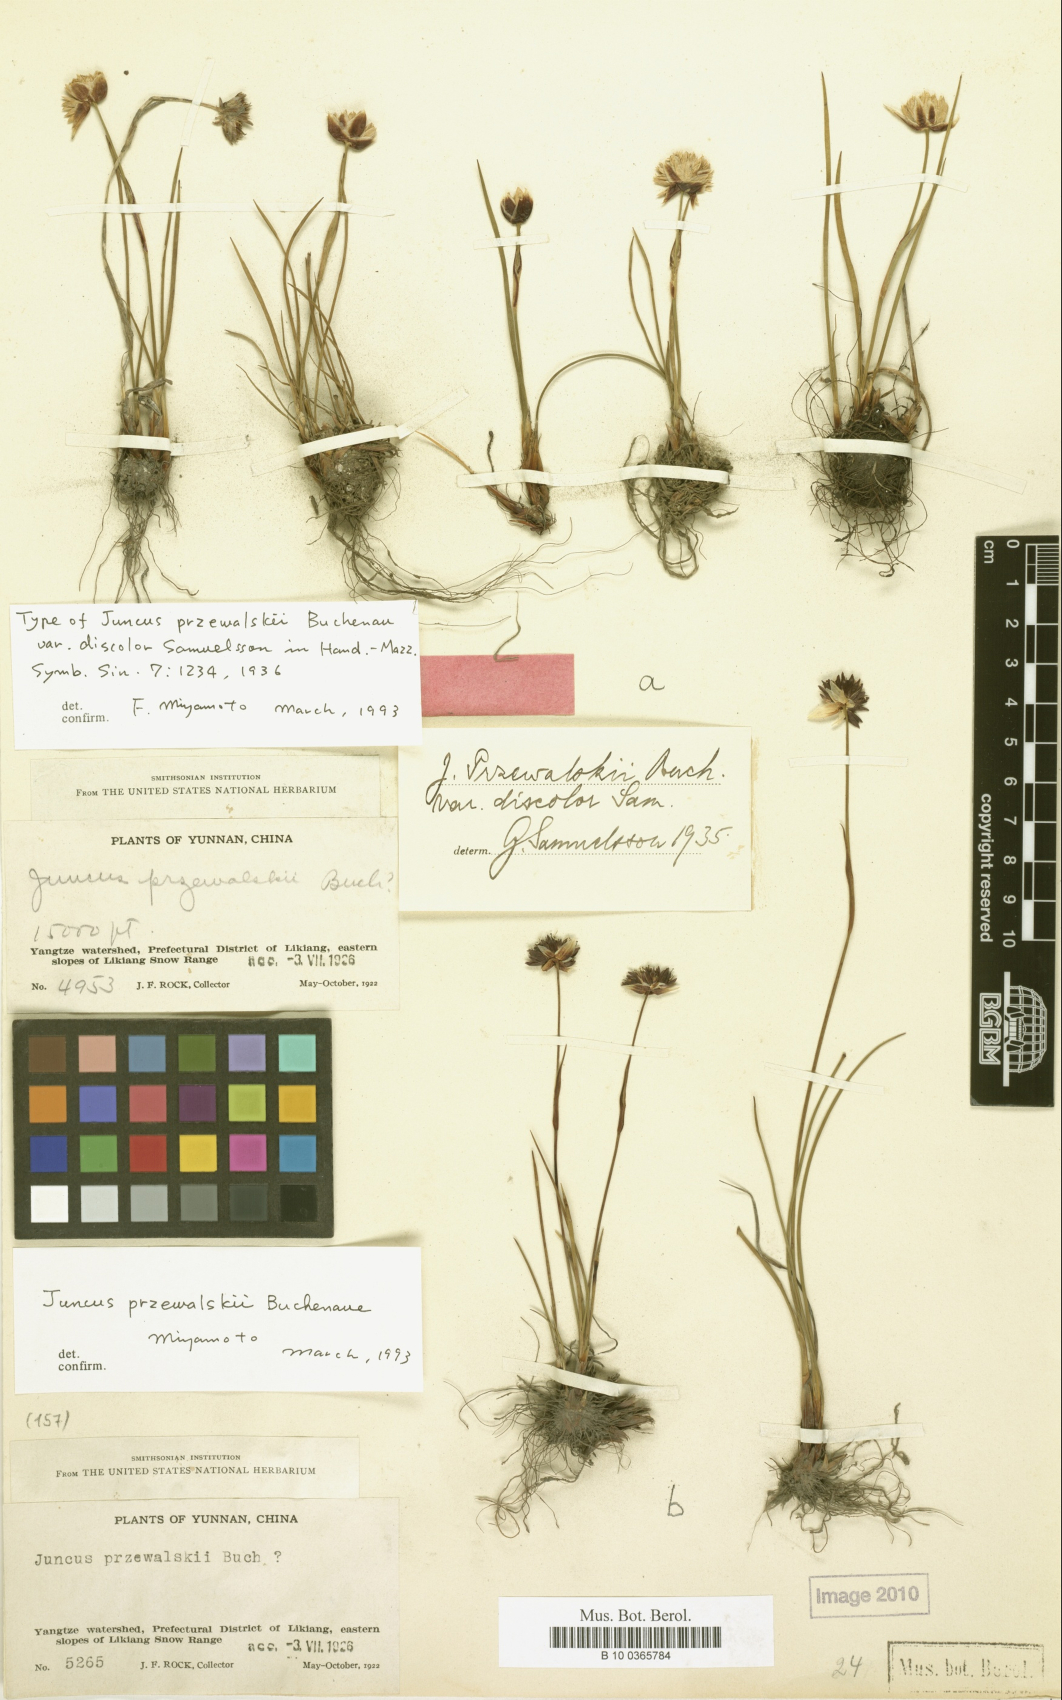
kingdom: Plantae
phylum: Tracheophyta
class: Liliopsida
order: Poales
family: Juncaceae
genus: Juncus
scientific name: Juncus przewalskii
